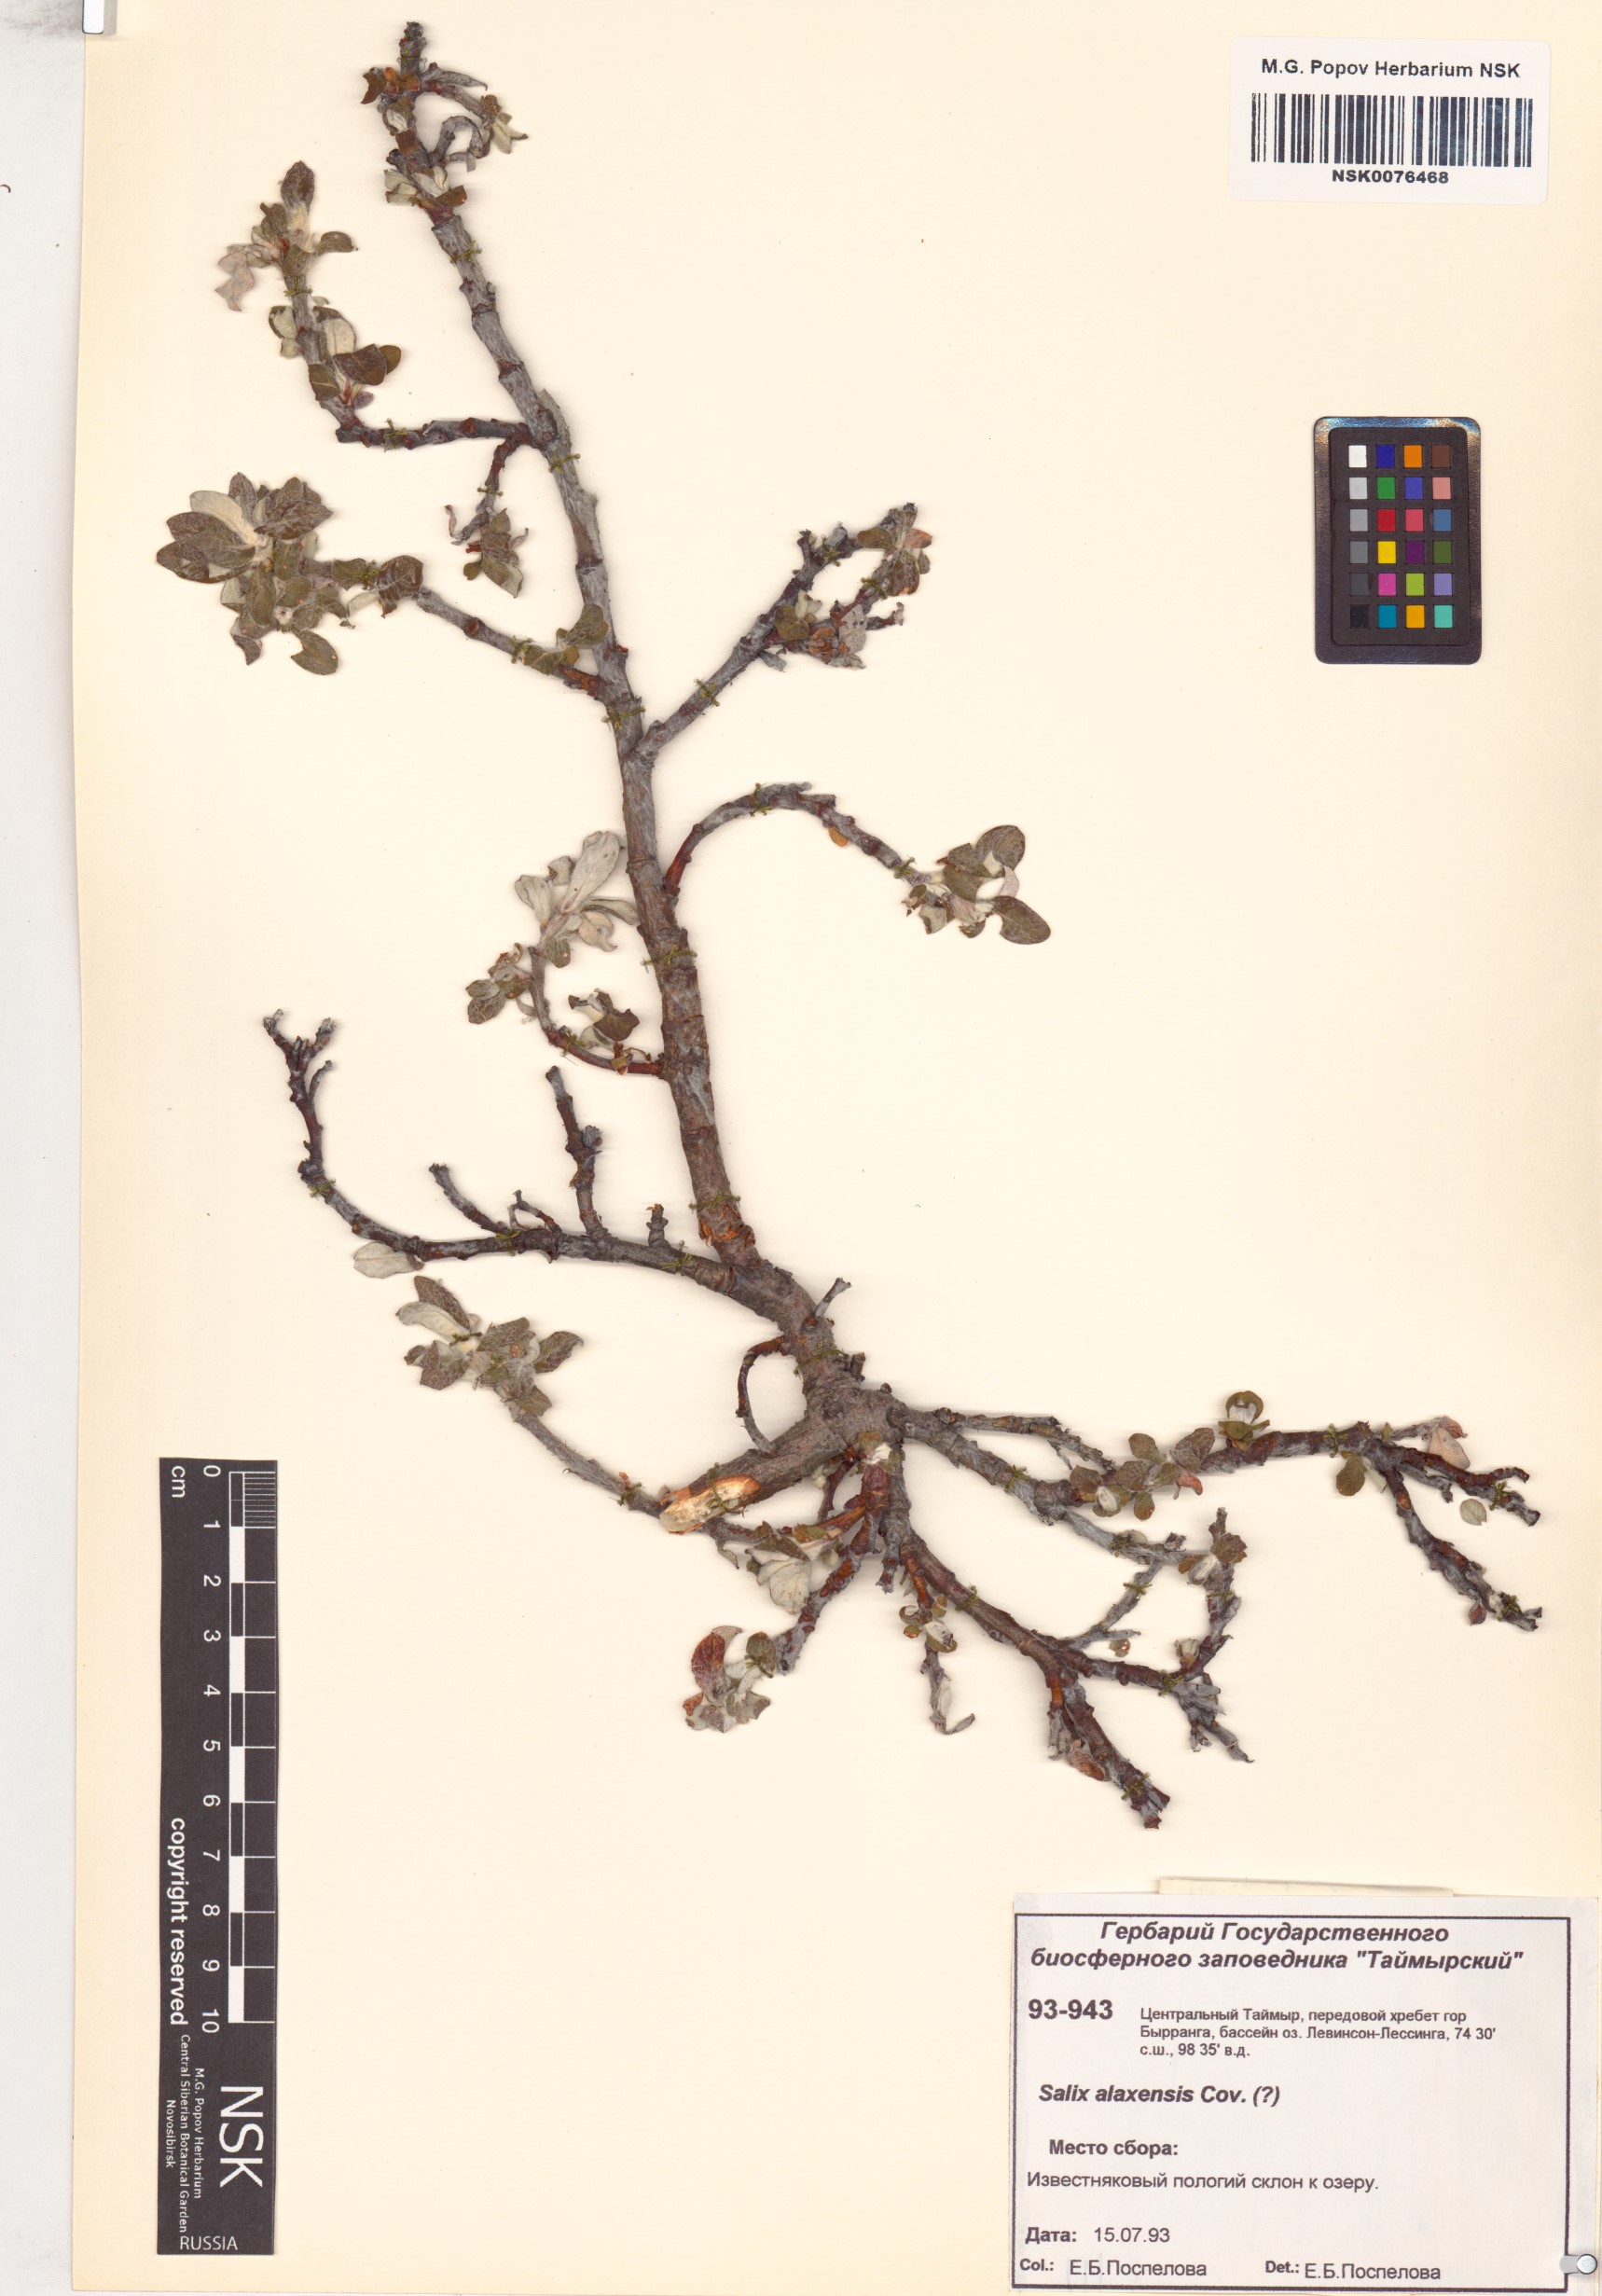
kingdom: Plantae
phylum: Tracheophyta
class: Magnoliopsida
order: Malpighiales
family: Salicaceae
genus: Salix
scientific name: Salix alaxensis
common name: Feltleaf willow
